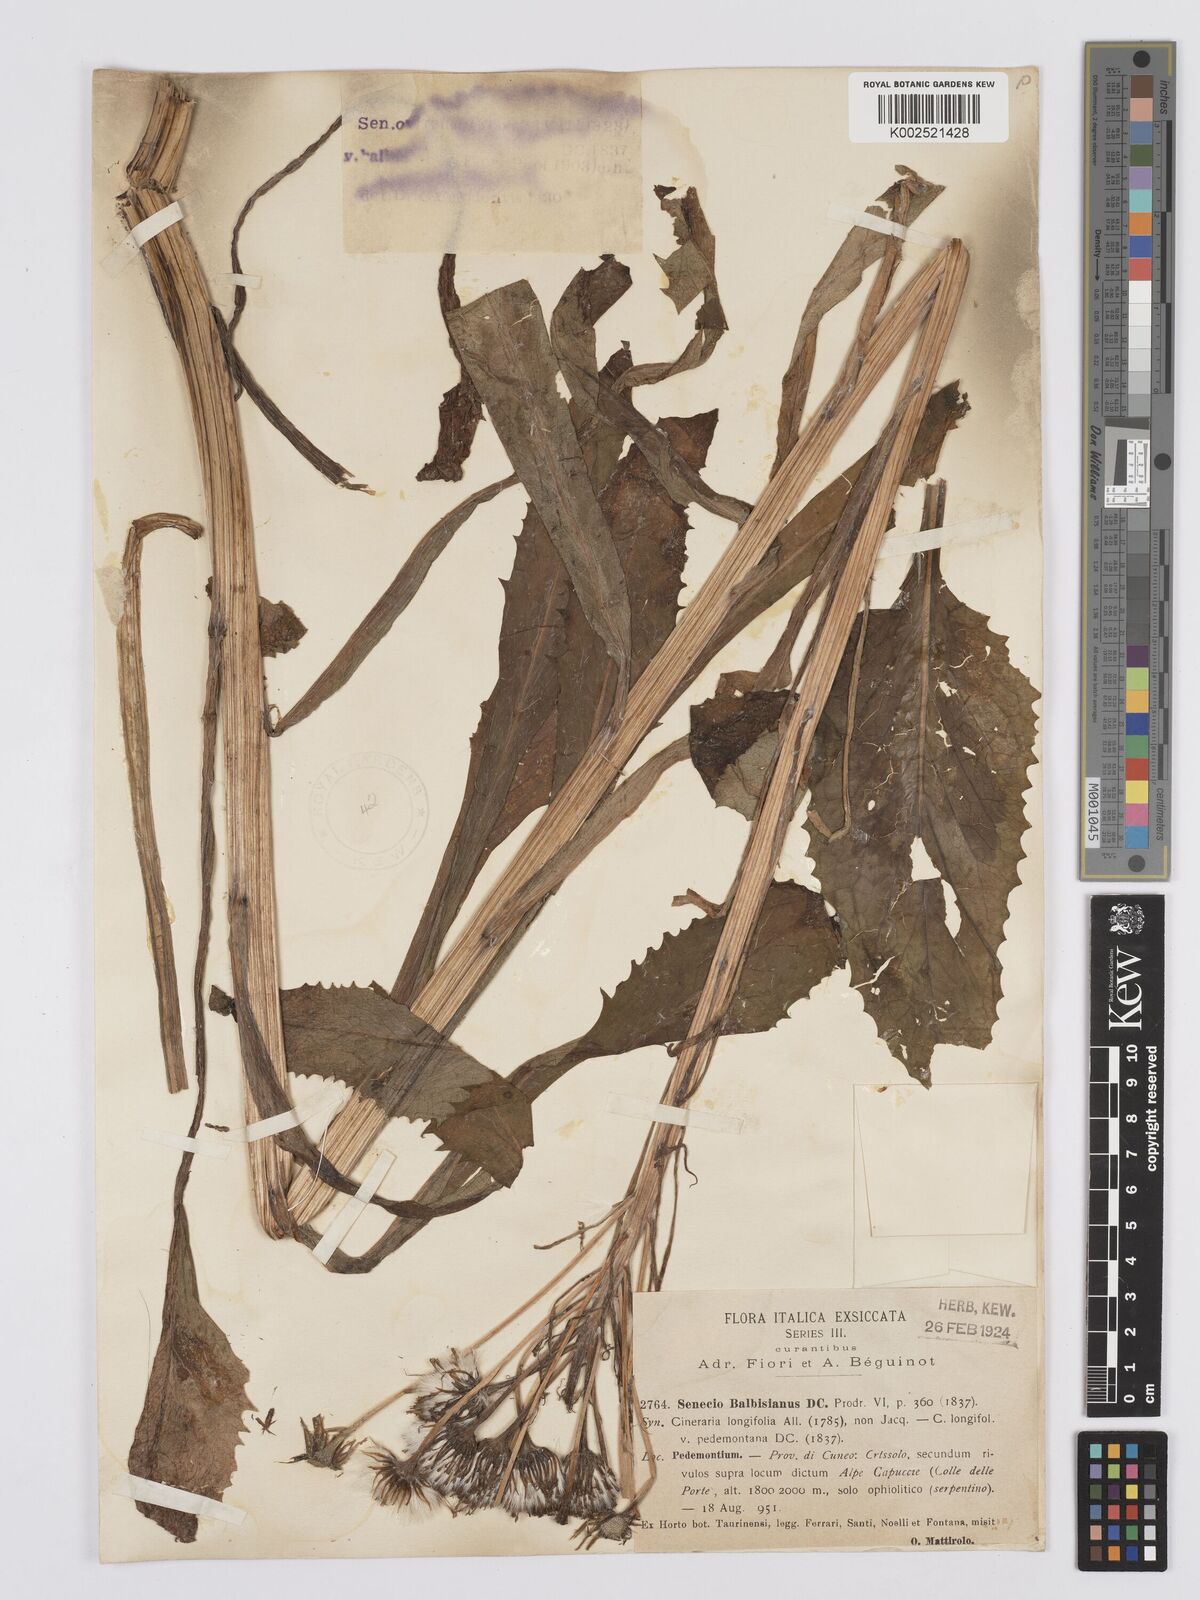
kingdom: Plantae
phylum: Tracheophyta
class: Magnoliopsida
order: Asterales
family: Asteraceae
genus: Tephroseris
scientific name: Tephroseris balbisiana
